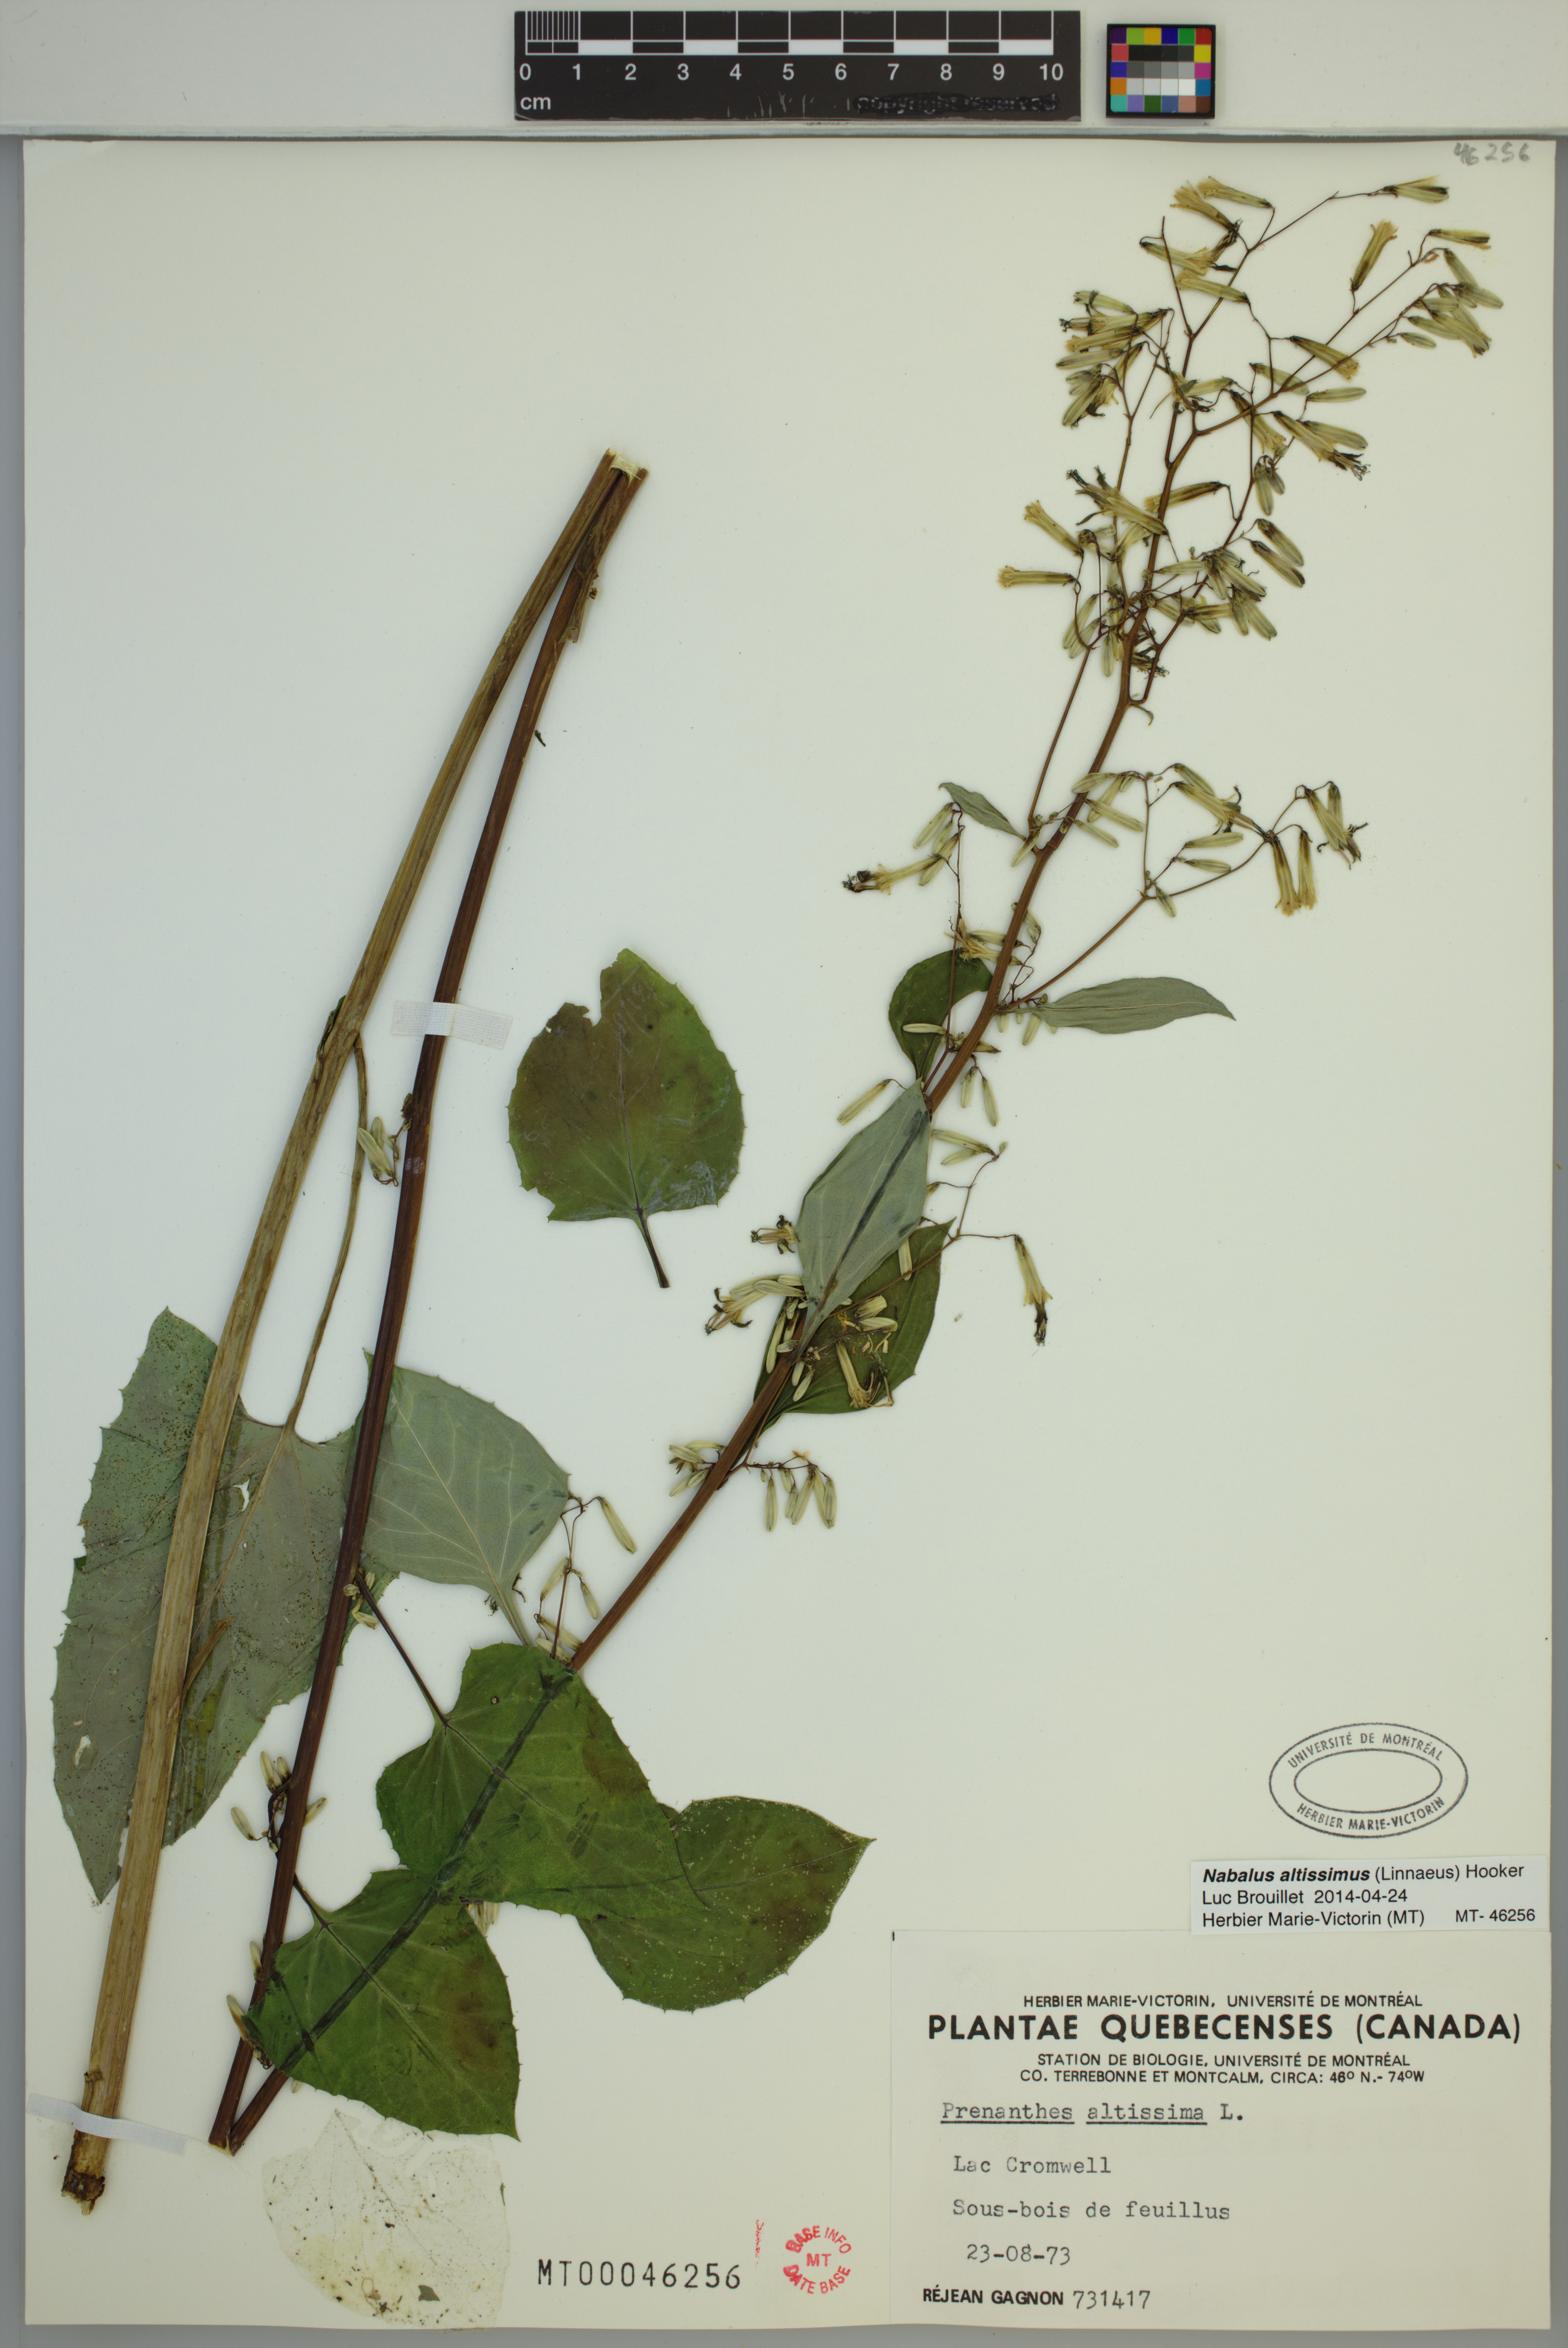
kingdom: Plantae
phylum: Tracheophyta
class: Magnoliopsida
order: Asterales
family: Asteraceae
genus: Nabalus
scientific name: Nabalus altissima
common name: Tall rattlesnakeroot
